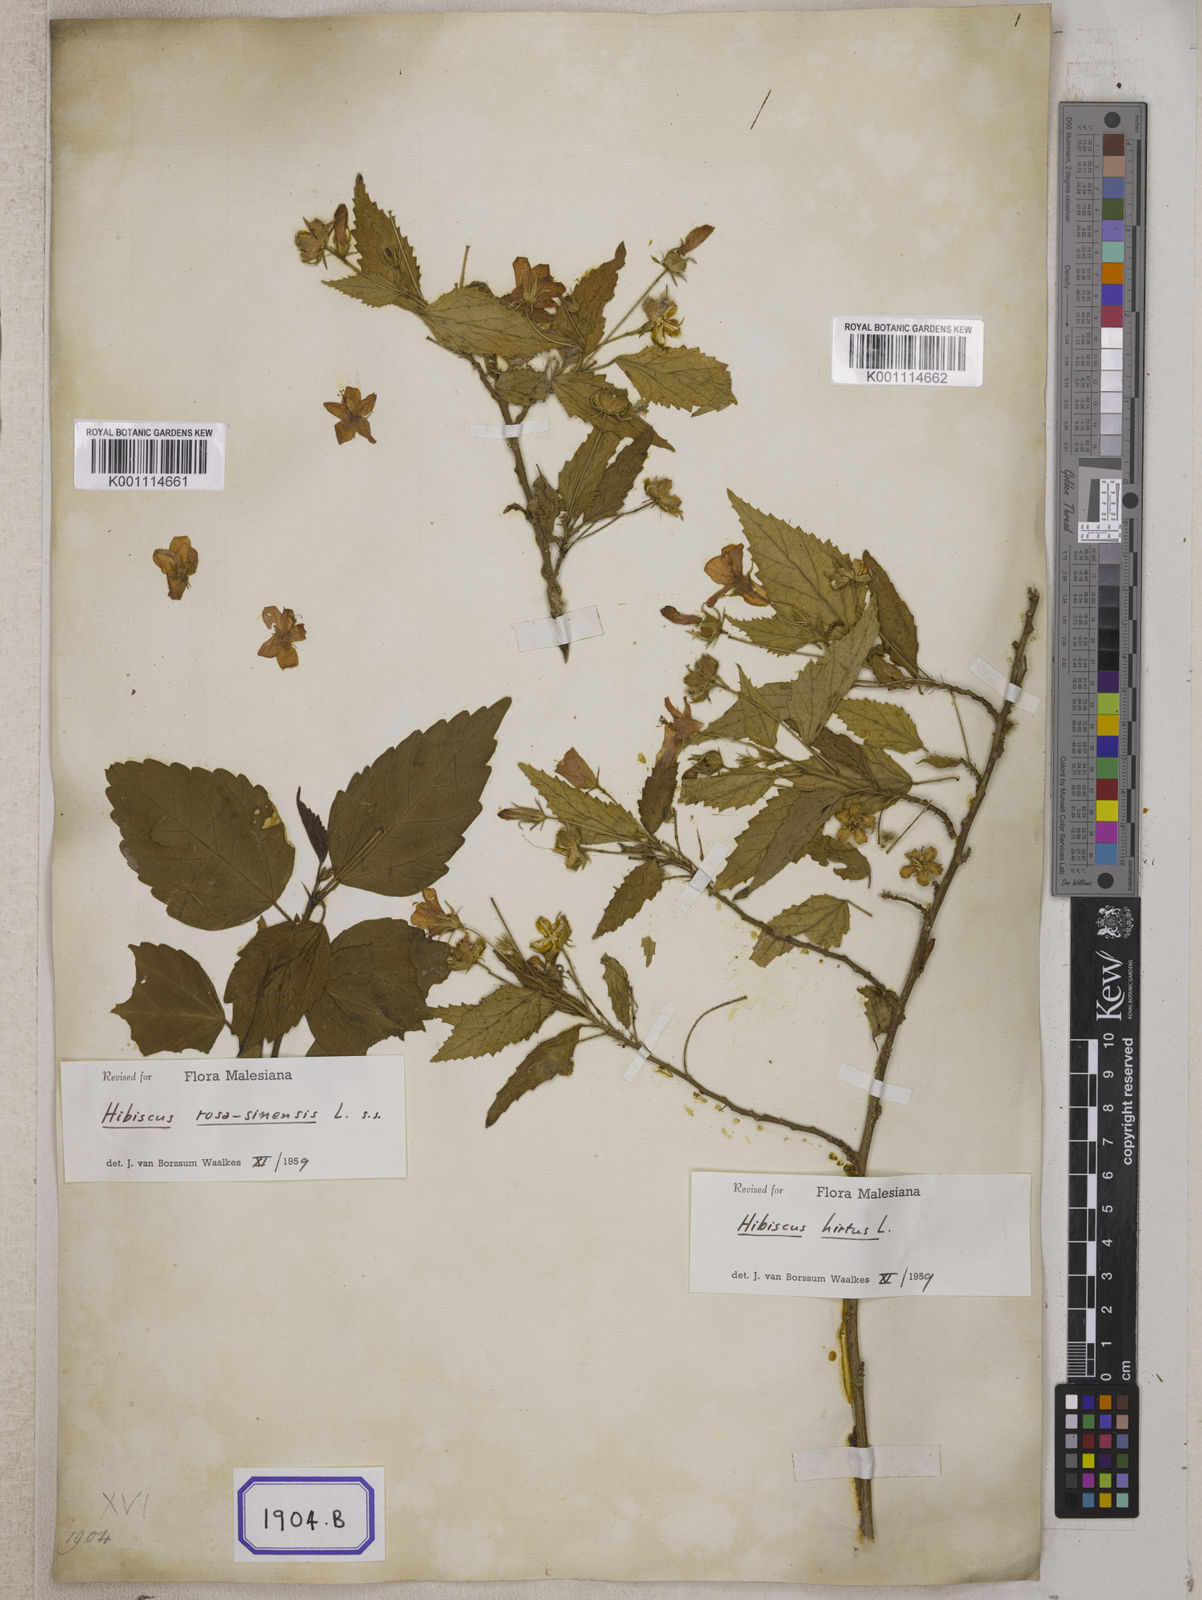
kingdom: Plantae
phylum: Tracheophyta
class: Magnoliopsida
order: Malvales
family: Malvaceae
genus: Hibiscus
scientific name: Hibiscus phoeniceus
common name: Brazilian rosemallow
